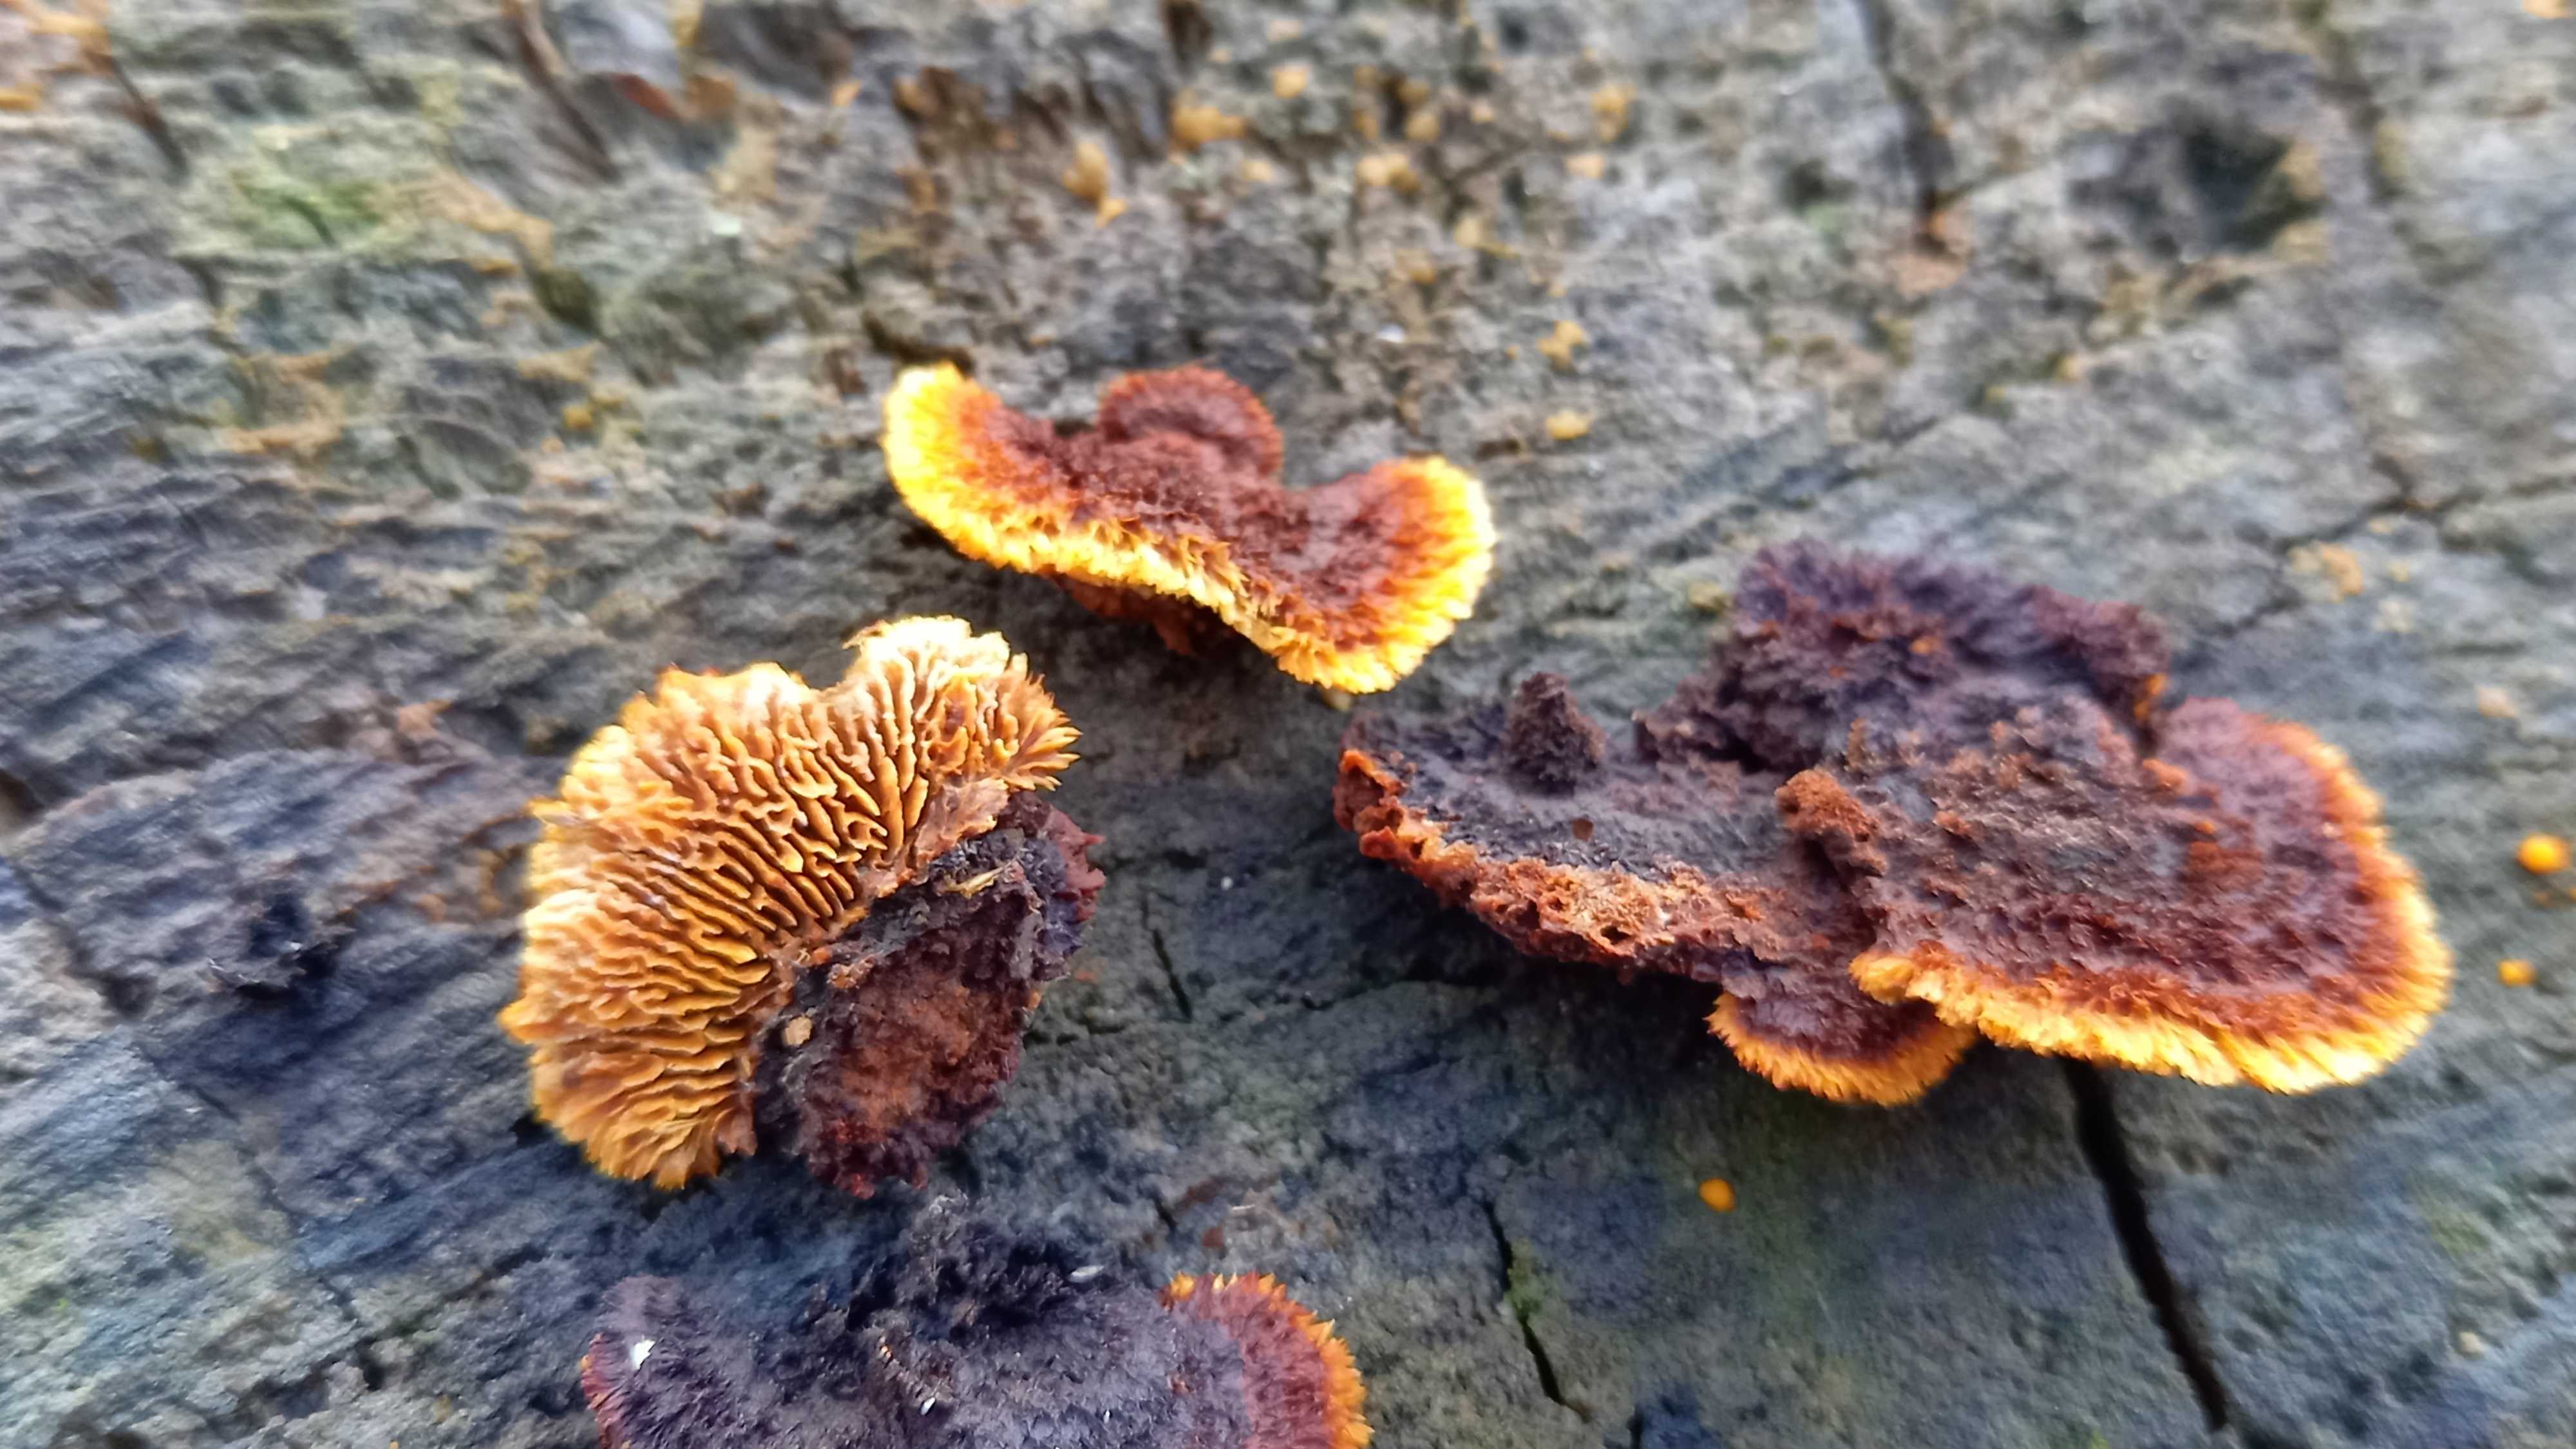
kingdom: Fungi
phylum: Basidiomycota
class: Agaricomycetes
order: Gloeophyllales
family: Gloeophyllaceae
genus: Gloeophyllum
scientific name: Gloeophyllum sepiarium
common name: fyrre-korkhat
